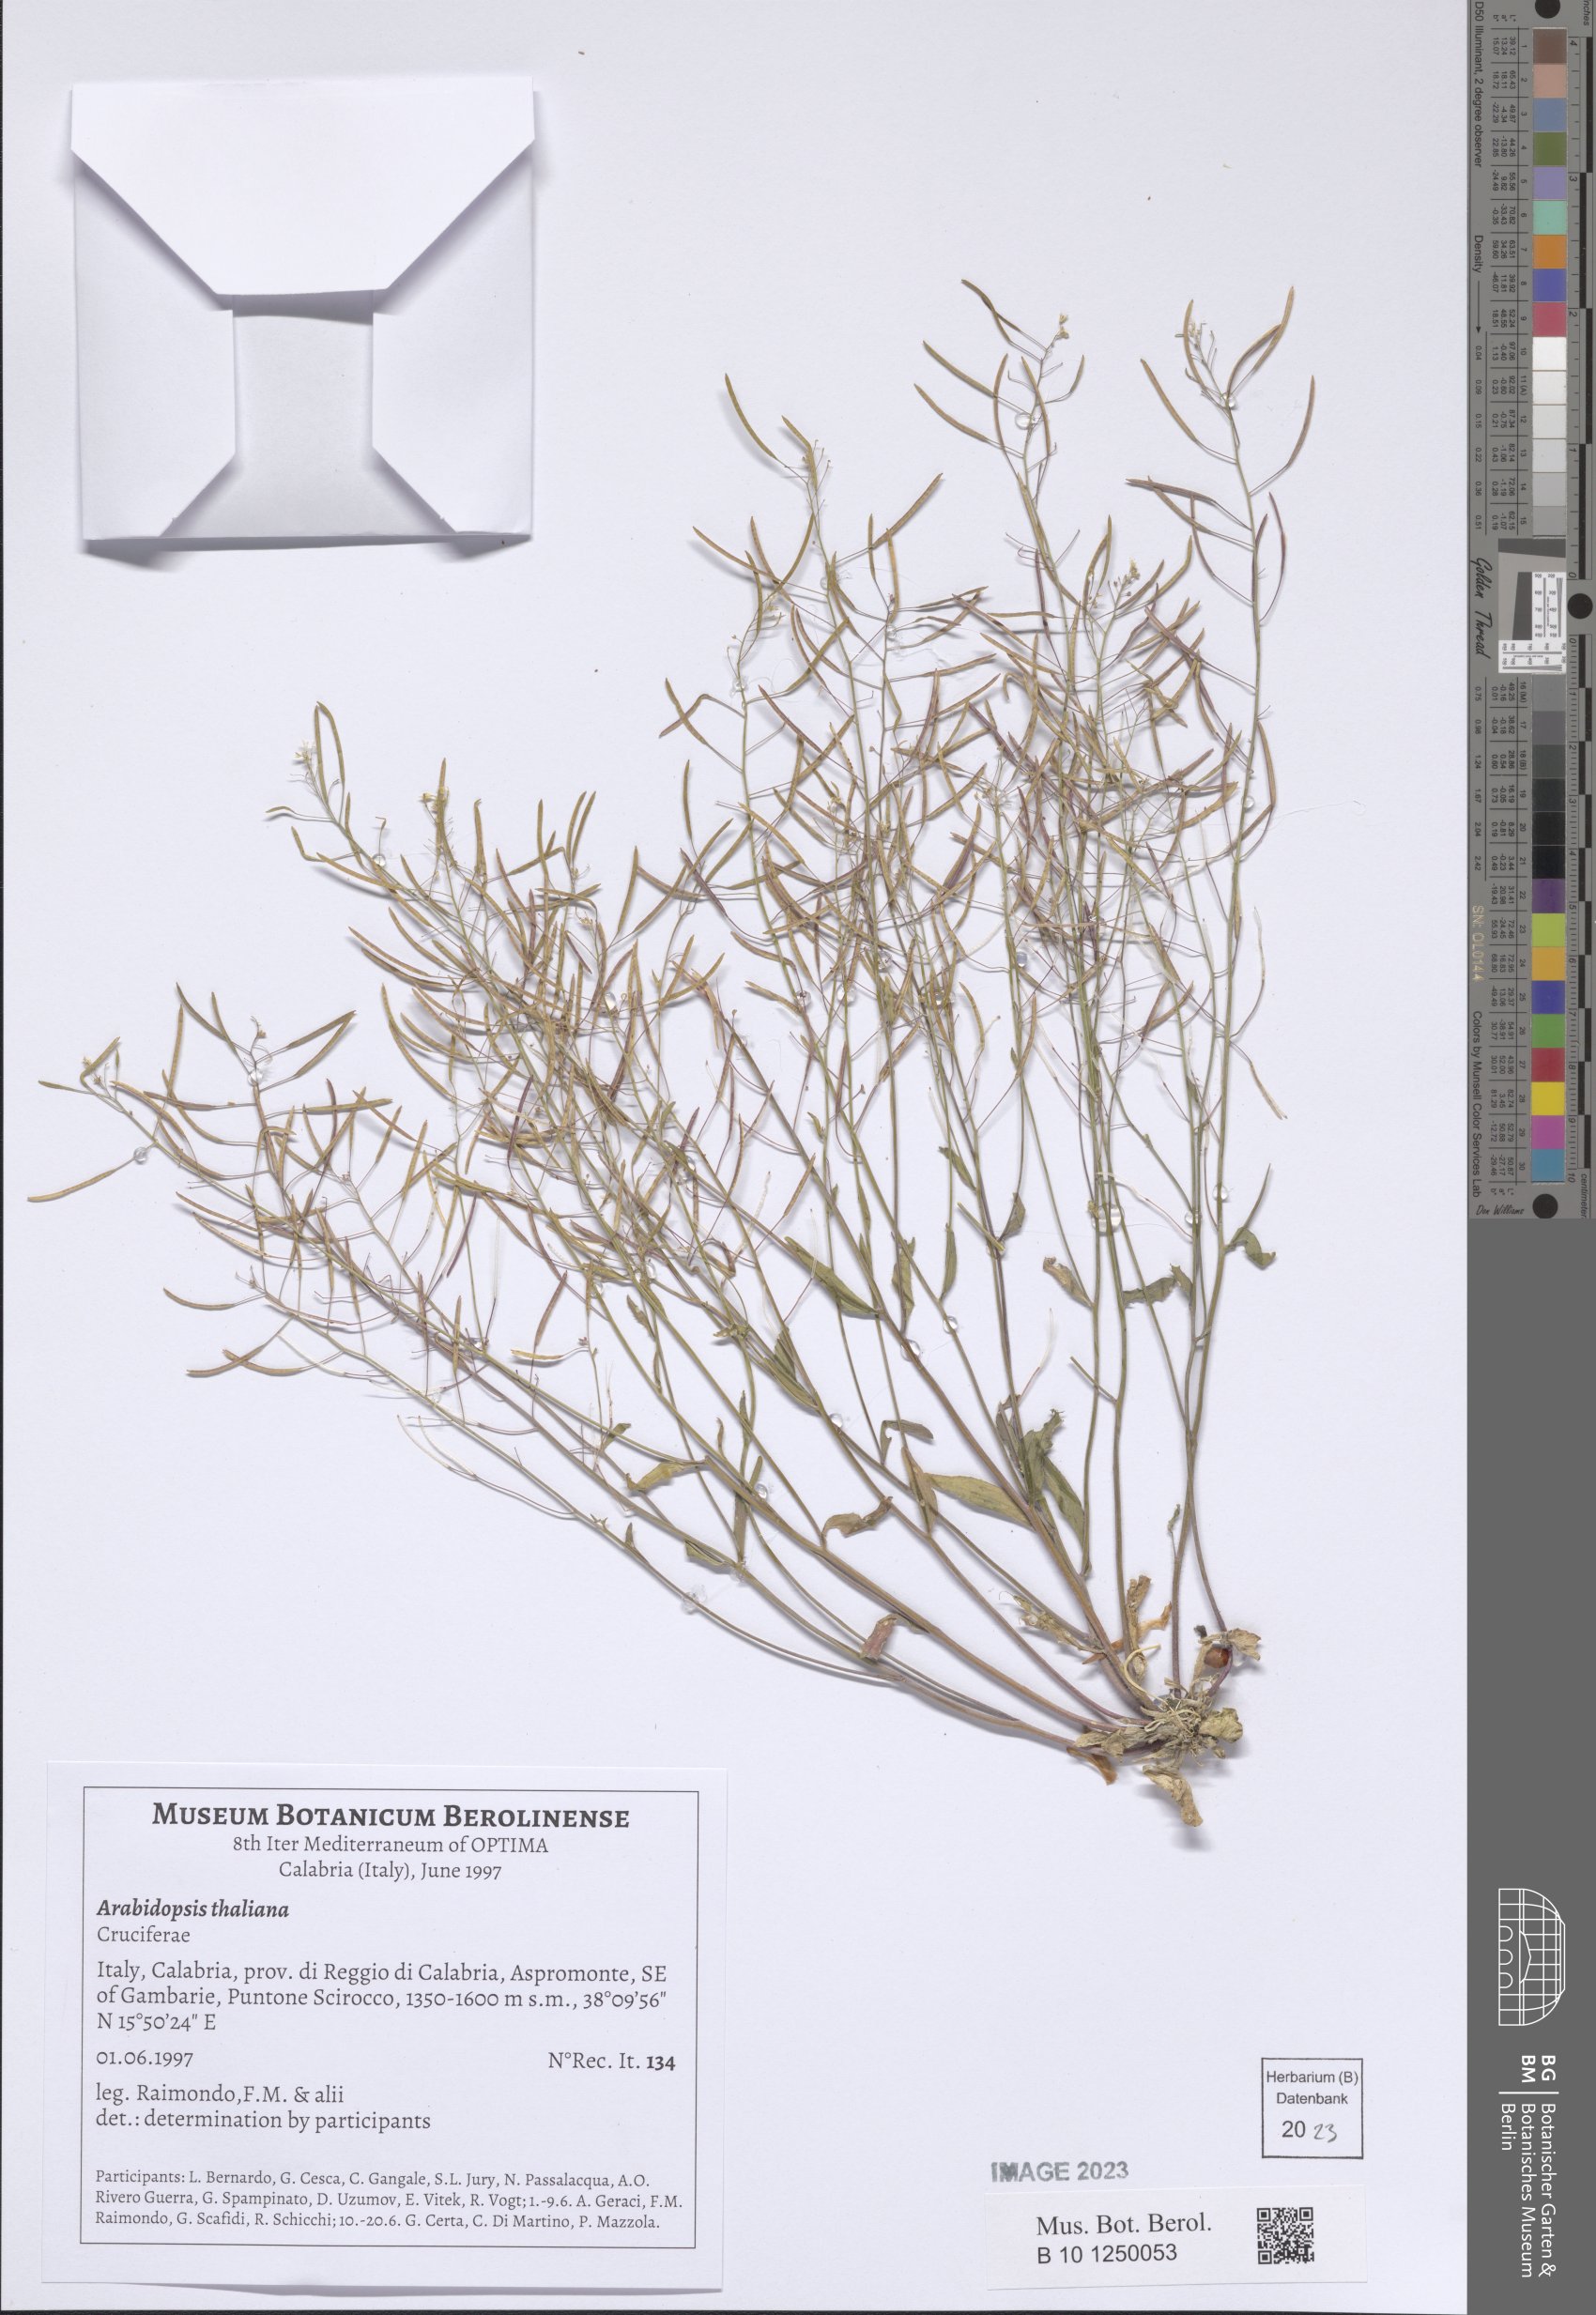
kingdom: Plantae
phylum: Tracheophyta
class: Magnoliopsida
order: Brassicales
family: Brassicaceae
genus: Arabidopsis
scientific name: Arabidopsis thaliana
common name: Thale cress
